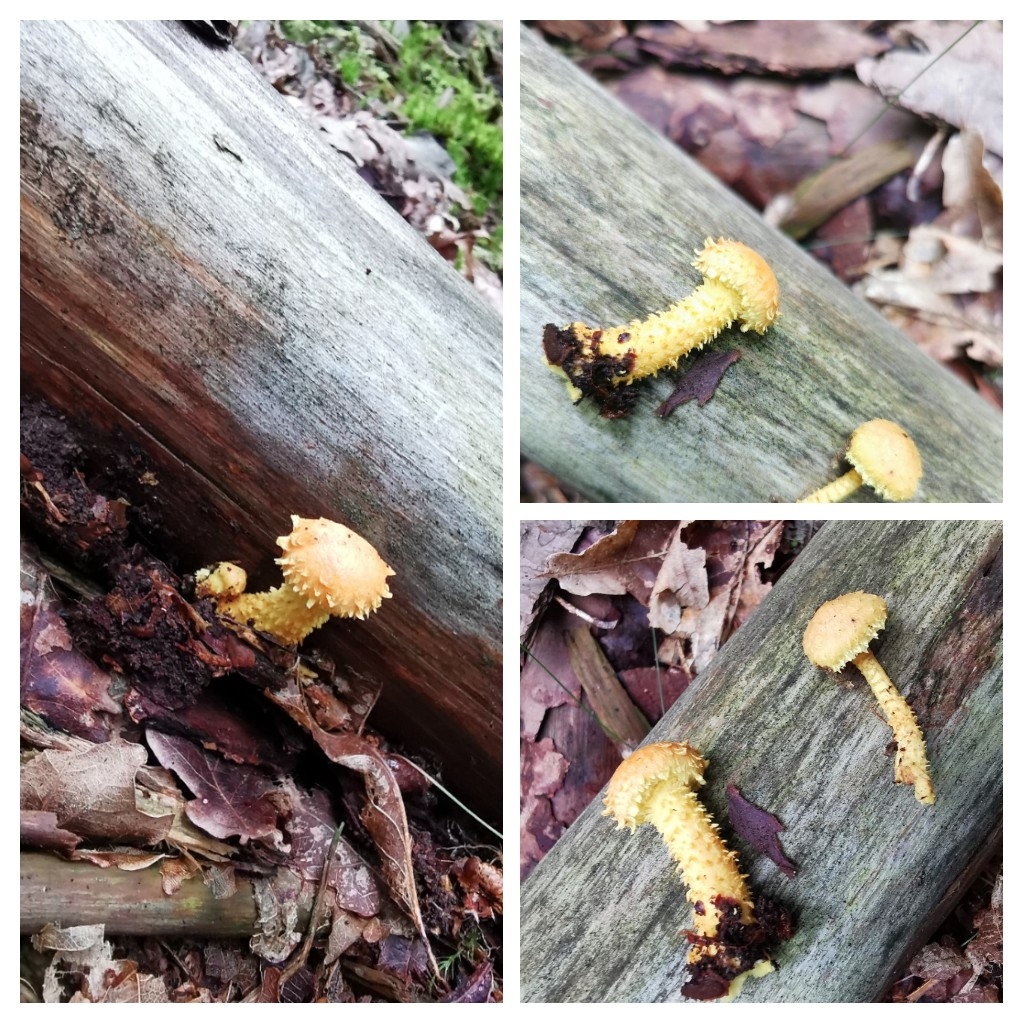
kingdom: Fungi
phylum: Basidiomycota
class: Agaricomycetes
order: Agaricales
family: Strophariaceae
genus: Pholiota
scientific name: Pholiota flammans
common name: flamme-skælhat
